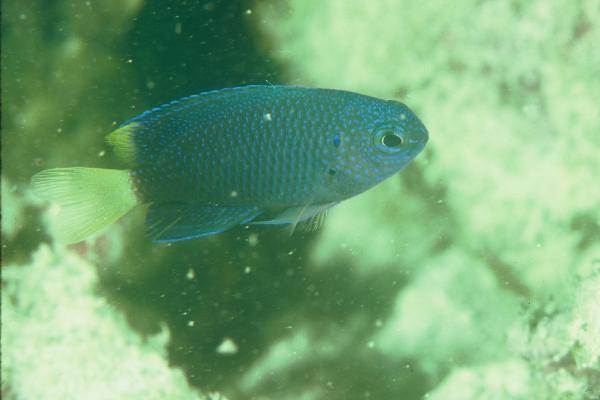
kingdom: Animalia
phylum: Chordata
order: Perciformes
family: Pomacentridae
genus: Pomacentrus
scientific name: Pomacentrus leptus
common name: Slender damsel
